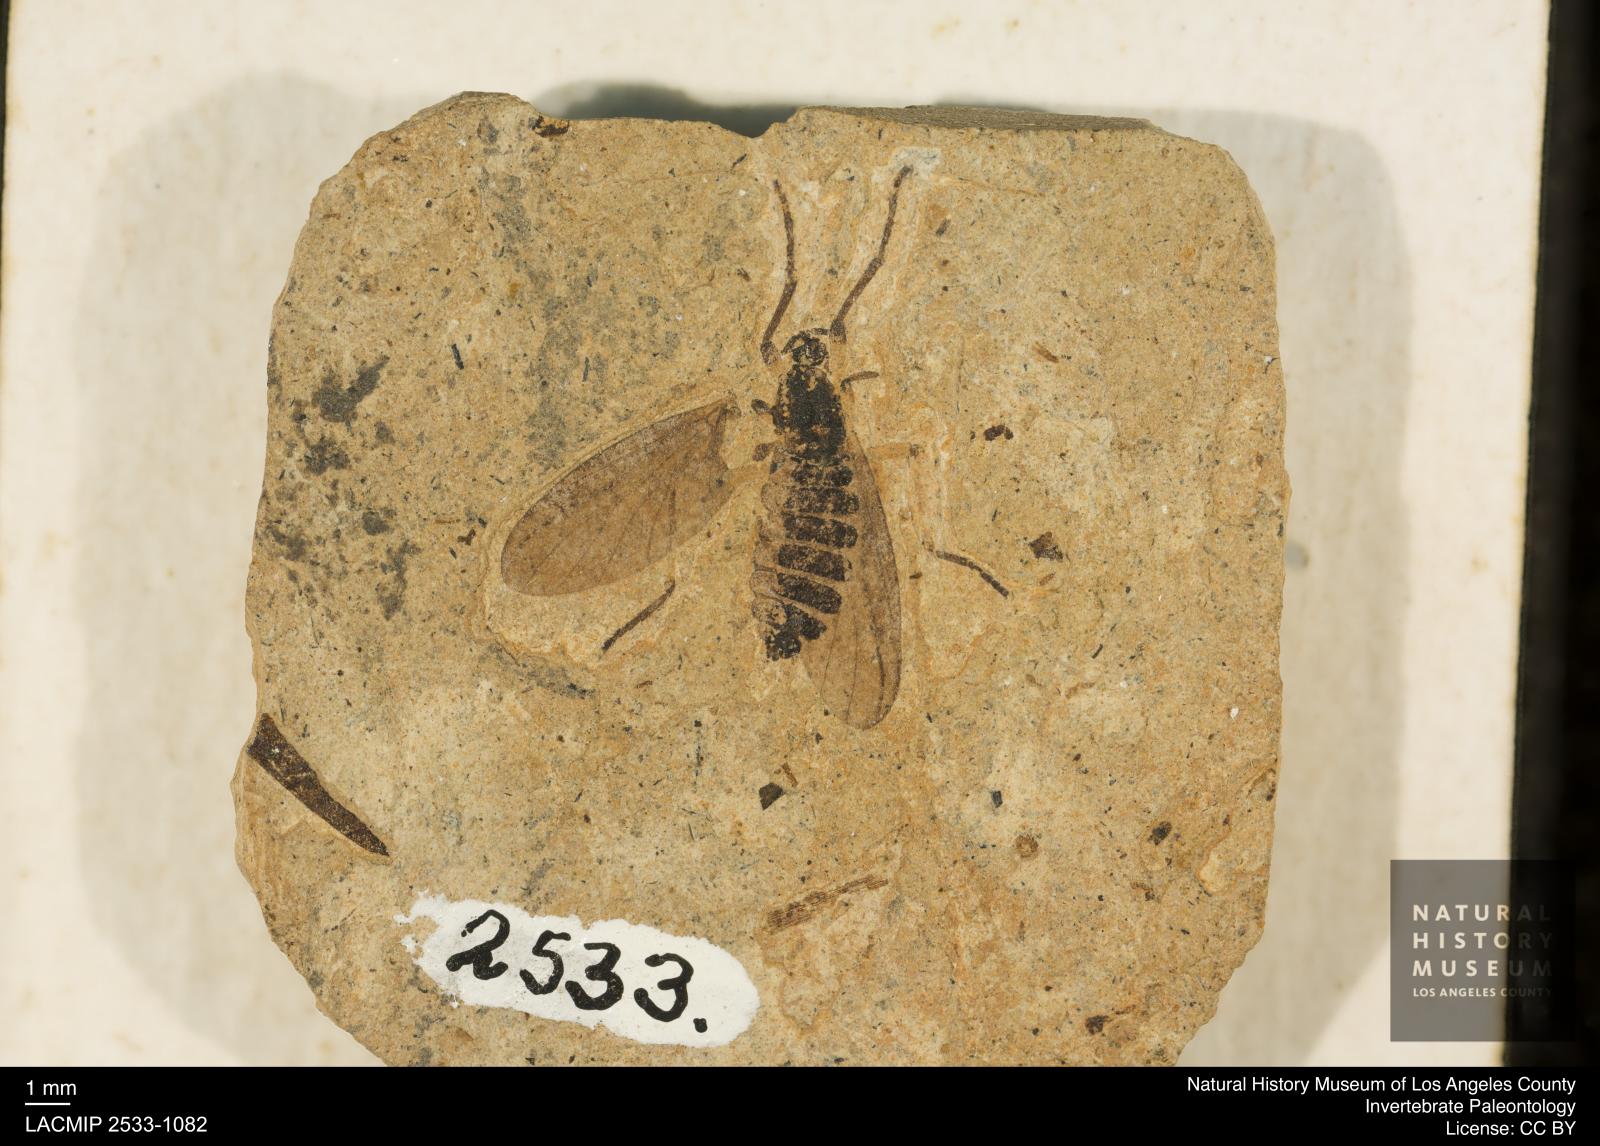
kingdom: Animalia
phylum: Arthropoda
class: Insecta
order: Diptera
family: Bibionidae
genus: Plecia
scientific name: Plecia hypogaea
